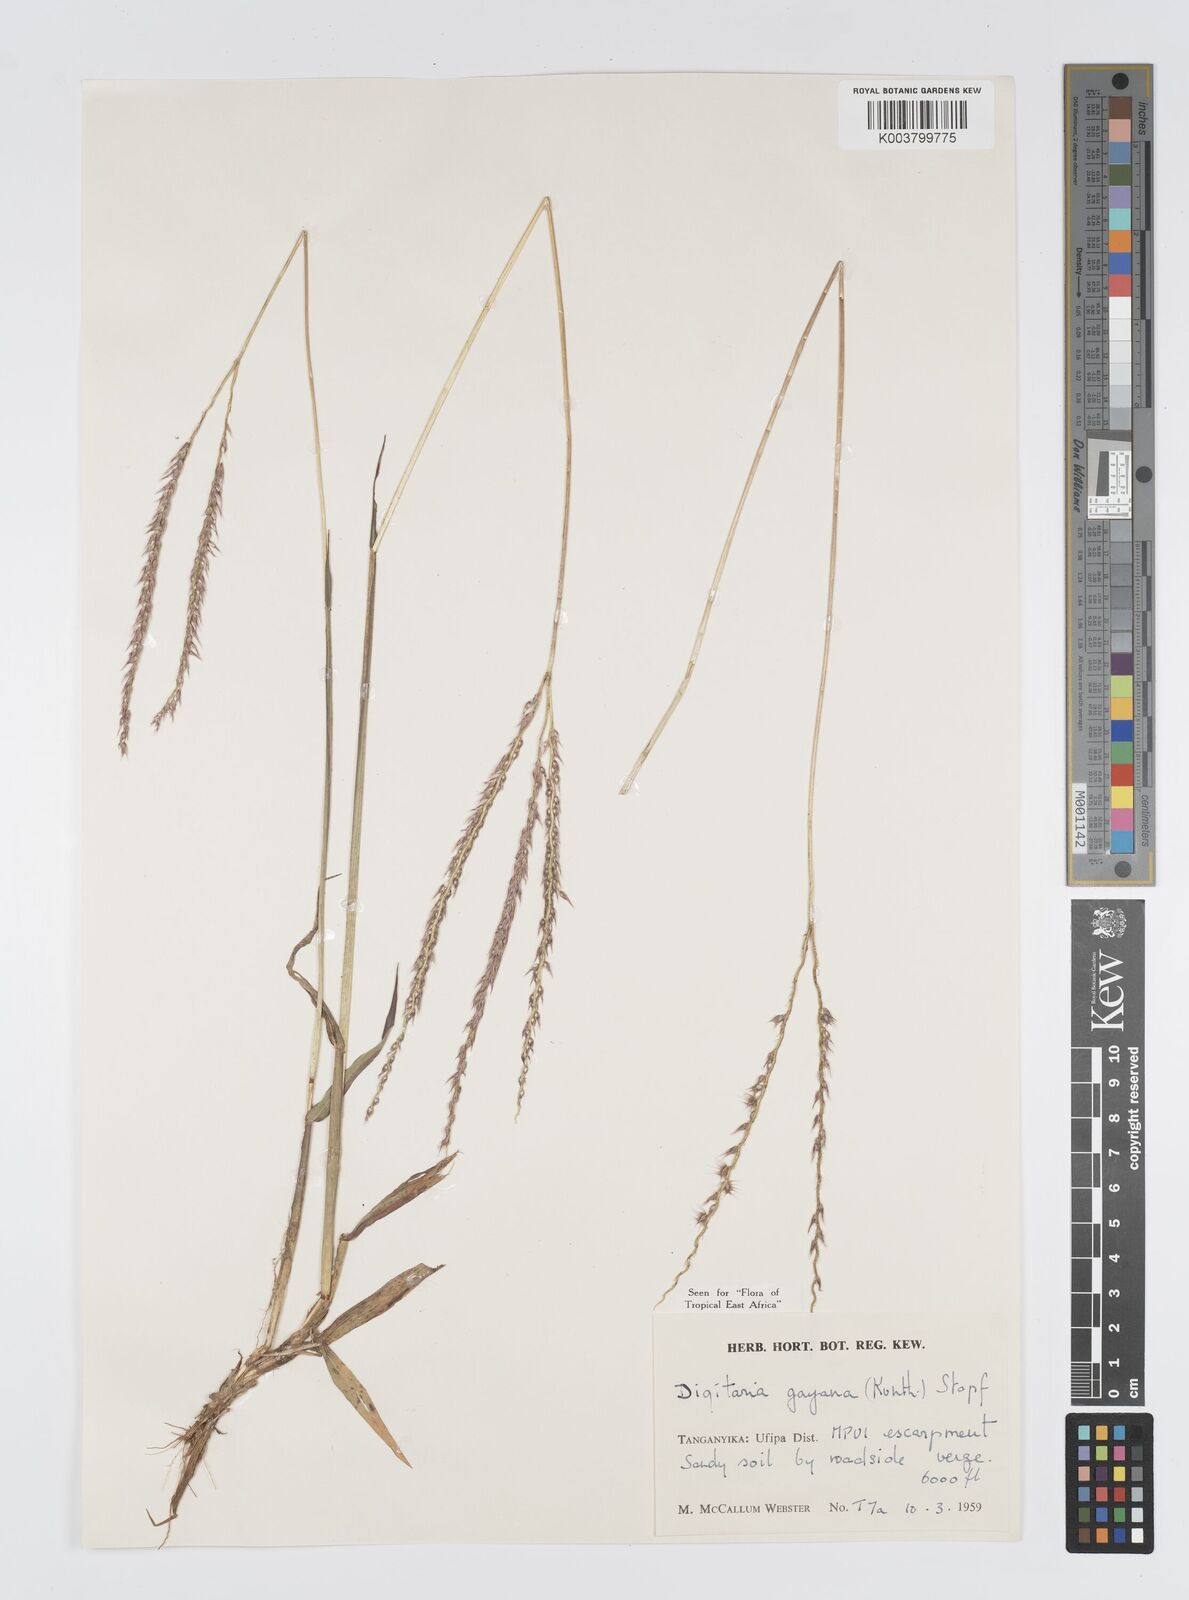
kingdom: Plantae
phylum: Tracheophyta
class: Liliopsida
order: Poales
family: Poaceae
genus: Digitaria
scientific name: Digitaria gayana
